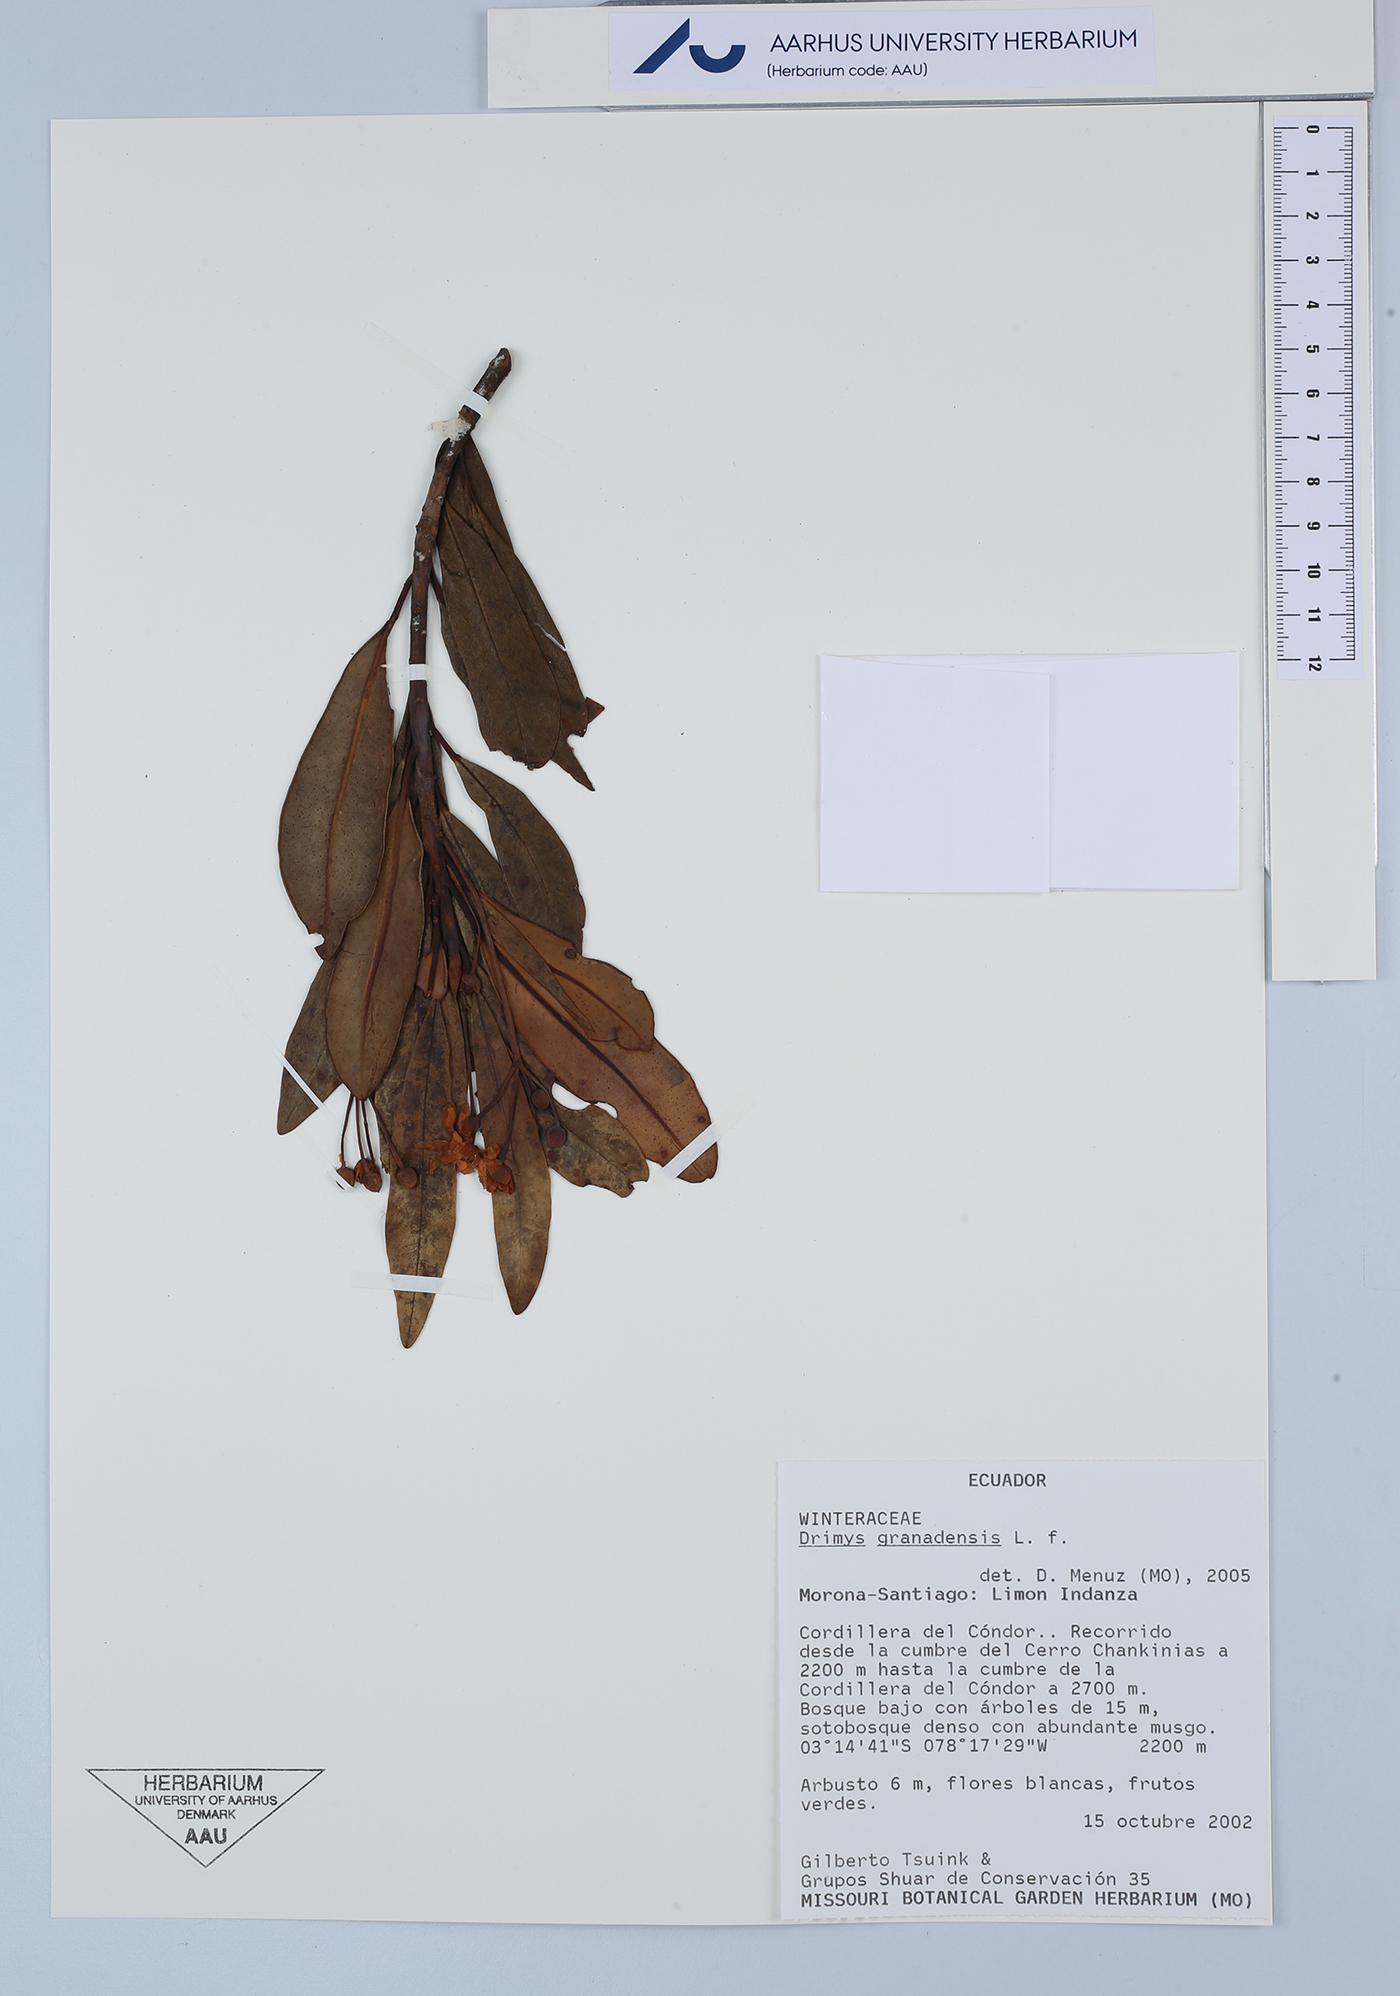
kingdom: Plantae
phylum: Tracheophyta
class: Magnoliopsida
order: Canellales
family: Winteraceae
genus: Drimys
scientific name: Drimys granadensis
